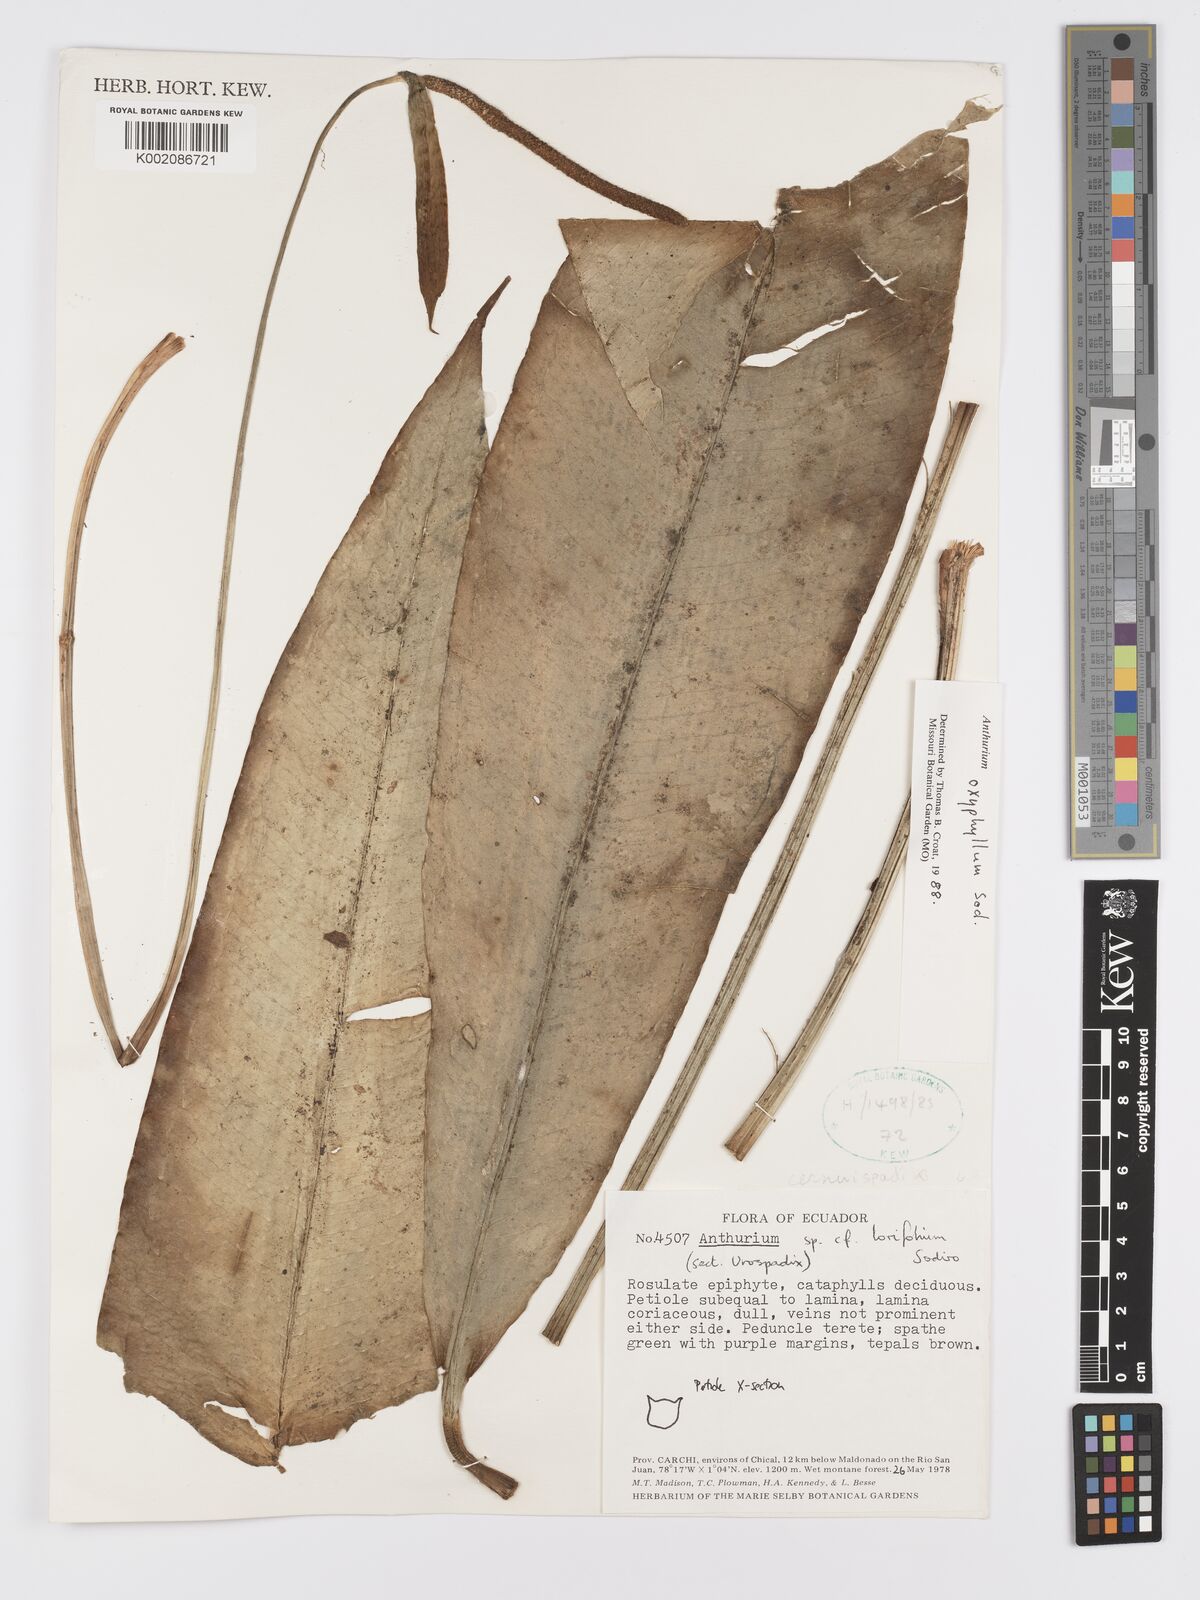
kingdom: Plantae
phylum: Tracheophyta
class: Liliopsida
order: Alismatales
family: Araceae
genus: Anthurium
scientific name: Anthurium oxyphyllum
